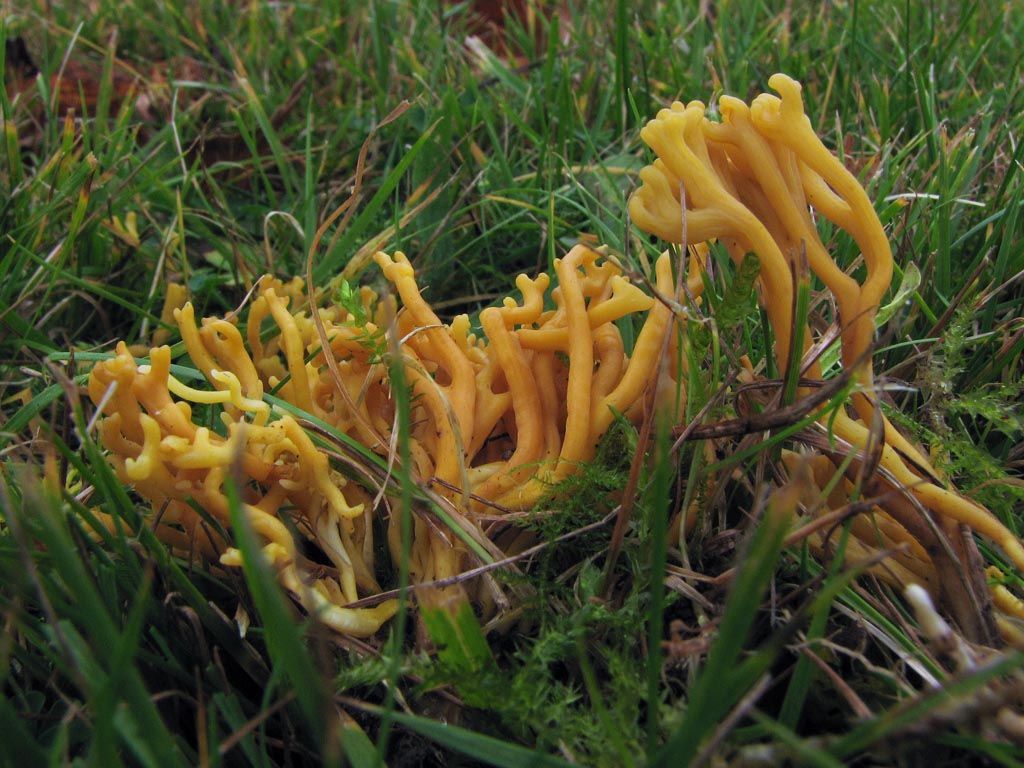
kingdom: Fungi
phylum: Basidiomycota
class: Agaricomycetes
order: Agaricales
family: Clavariaceae
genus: Clavulinopsis
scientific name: Clavulinopsis corniculata
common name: eng-køllesvamp
